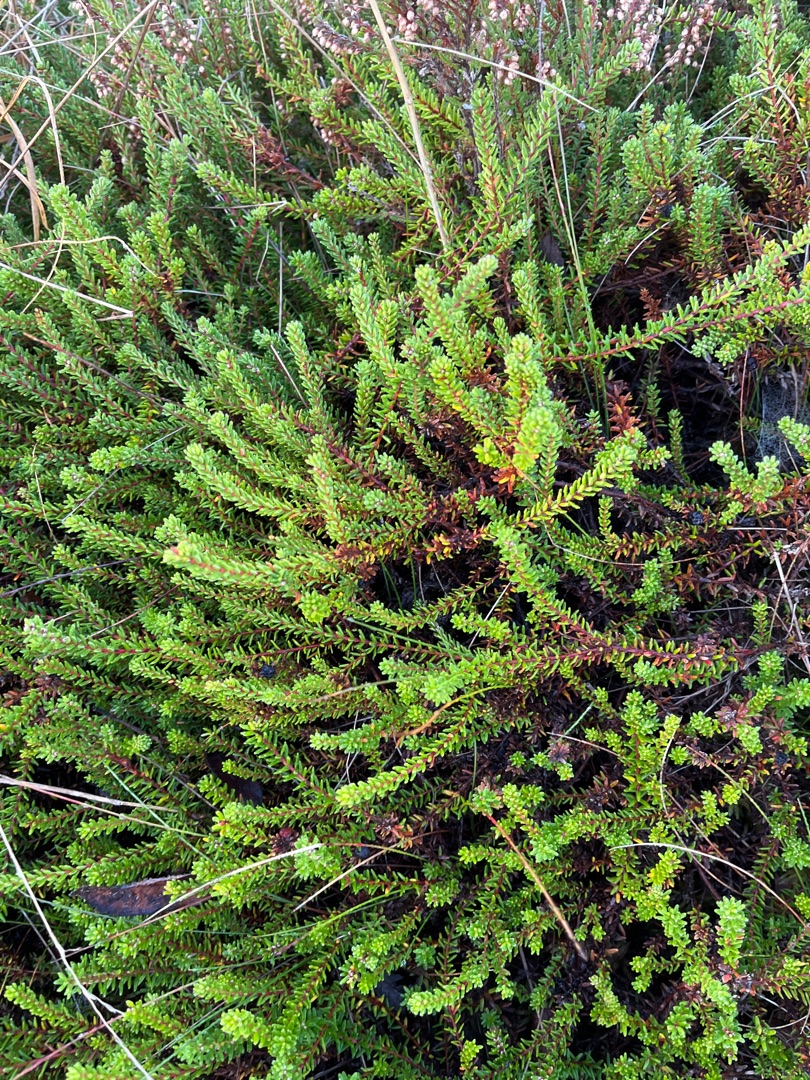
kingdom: Plantae
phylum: Tracheophyta
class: Magnoliopsida
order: Ericales
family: Ericaceae
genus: Empetrum
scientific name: Empetrum nigrum
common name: Revling
